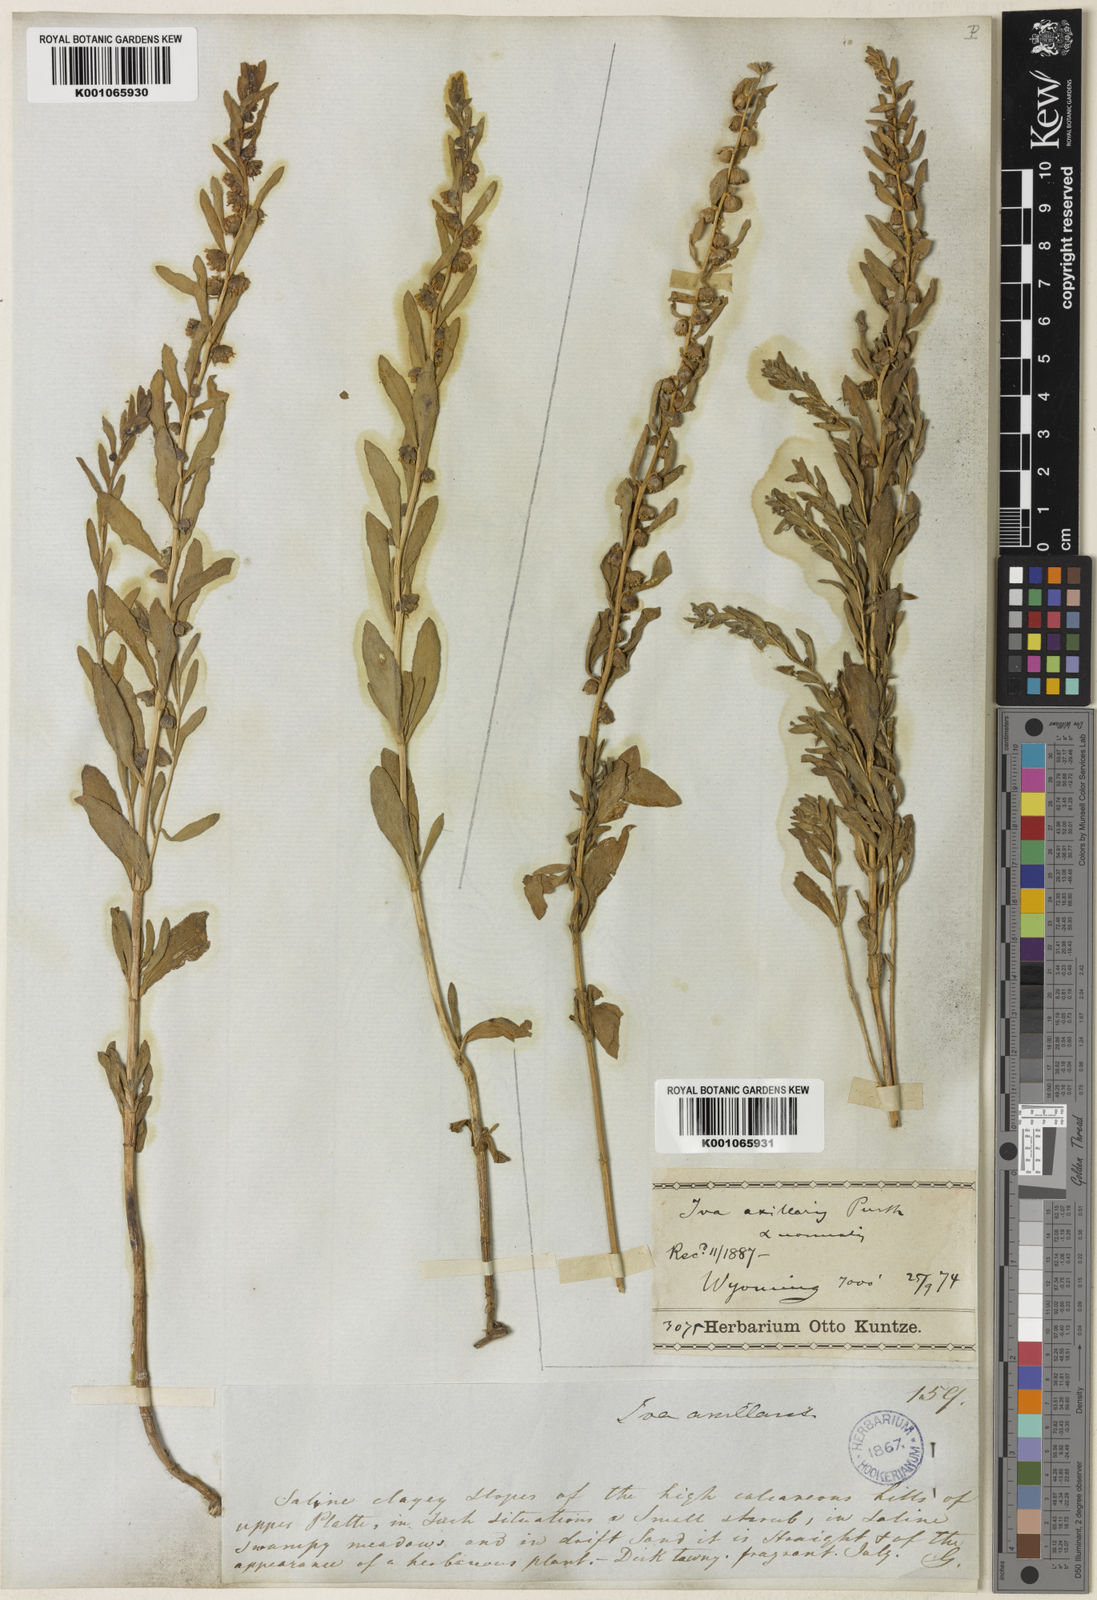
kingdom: Plantae
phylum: Tracheophyta
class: Magnoliopsida
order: Asterales
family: Asteraceae
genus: Iva
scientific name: Iva axillaris
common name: Poverty sumpweed
